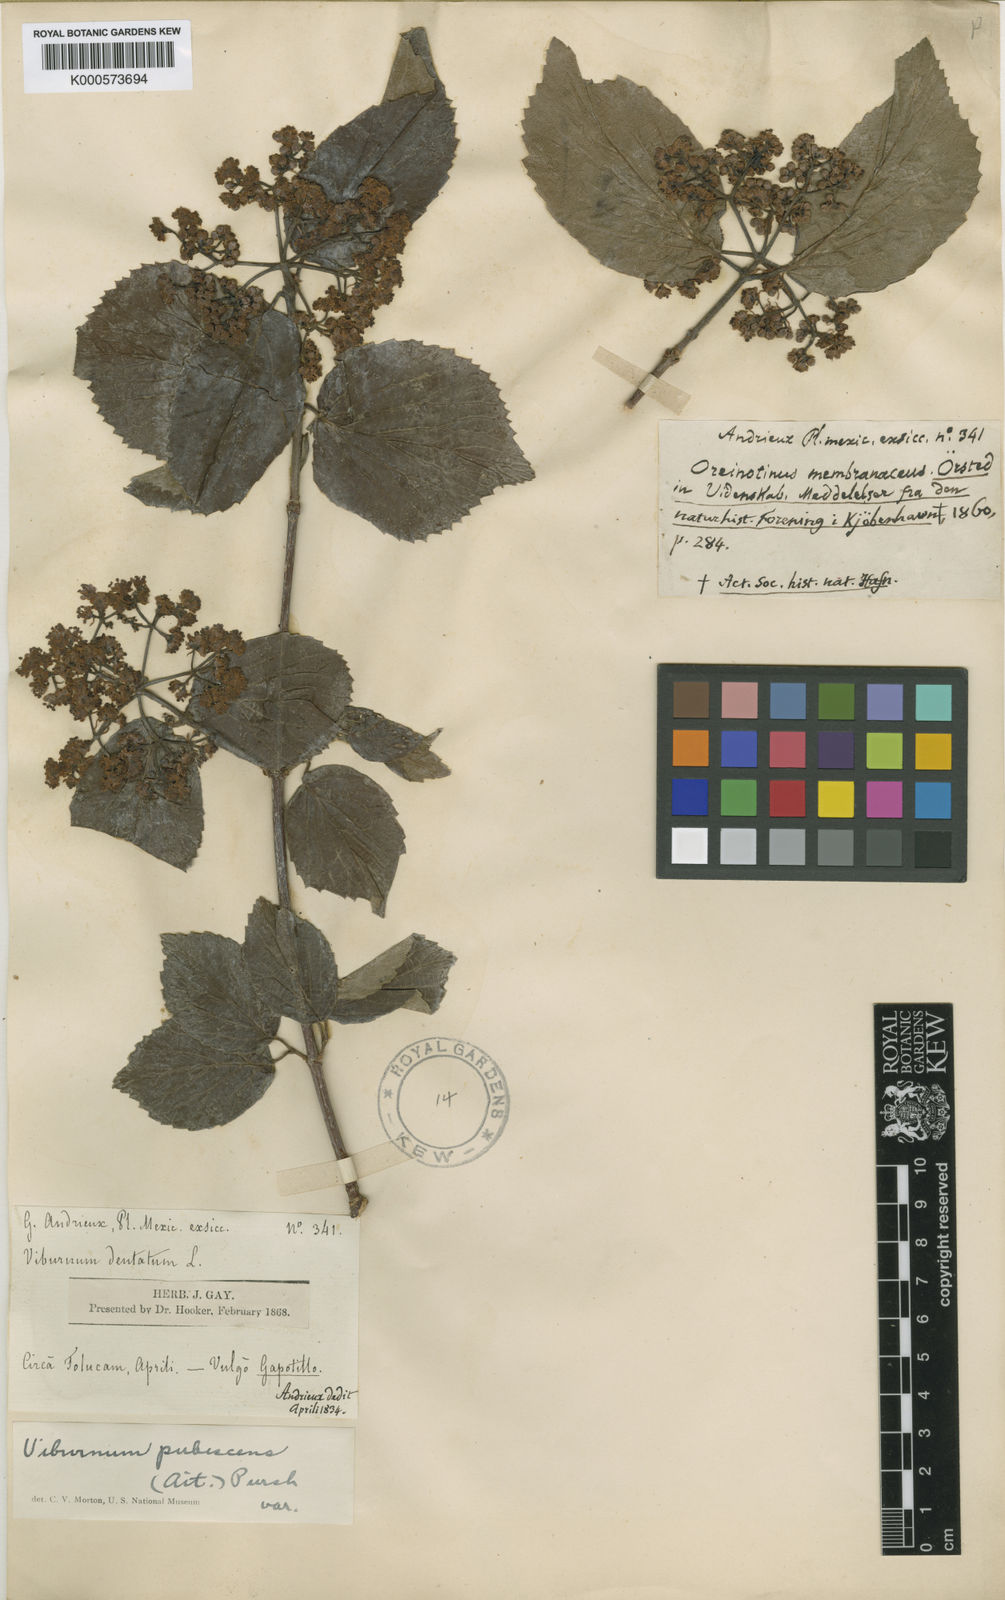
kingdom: Plantae
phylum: Tracheophyta
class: Magnoliopsida
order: Dipsacales
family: Viburnaceae
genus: Viburnum
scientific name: Viburnum dentatum
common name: Arrow-wood
